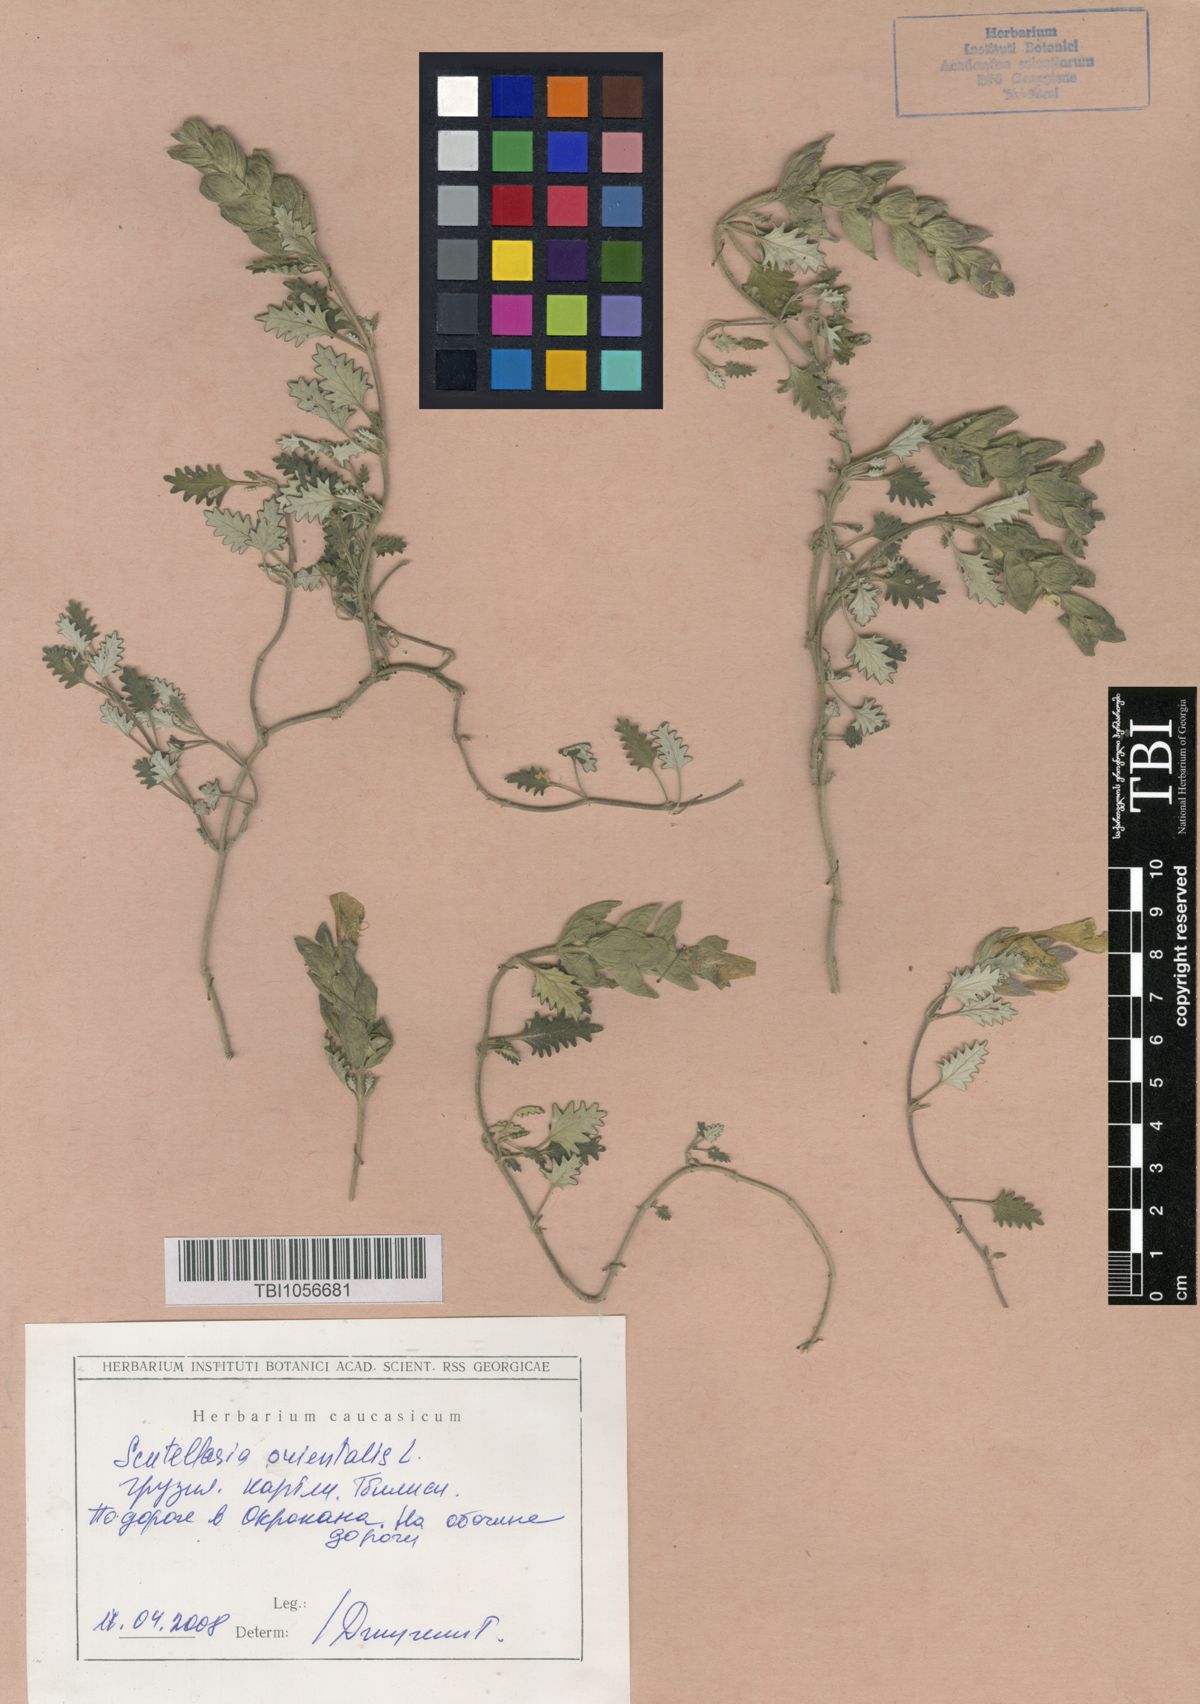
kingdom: Plantae
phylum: Tracheophyta
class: Magnoliopsida
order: Lamiales
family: Lamiaceae
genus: Scutellaria
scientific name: Scutellaria orientalis
